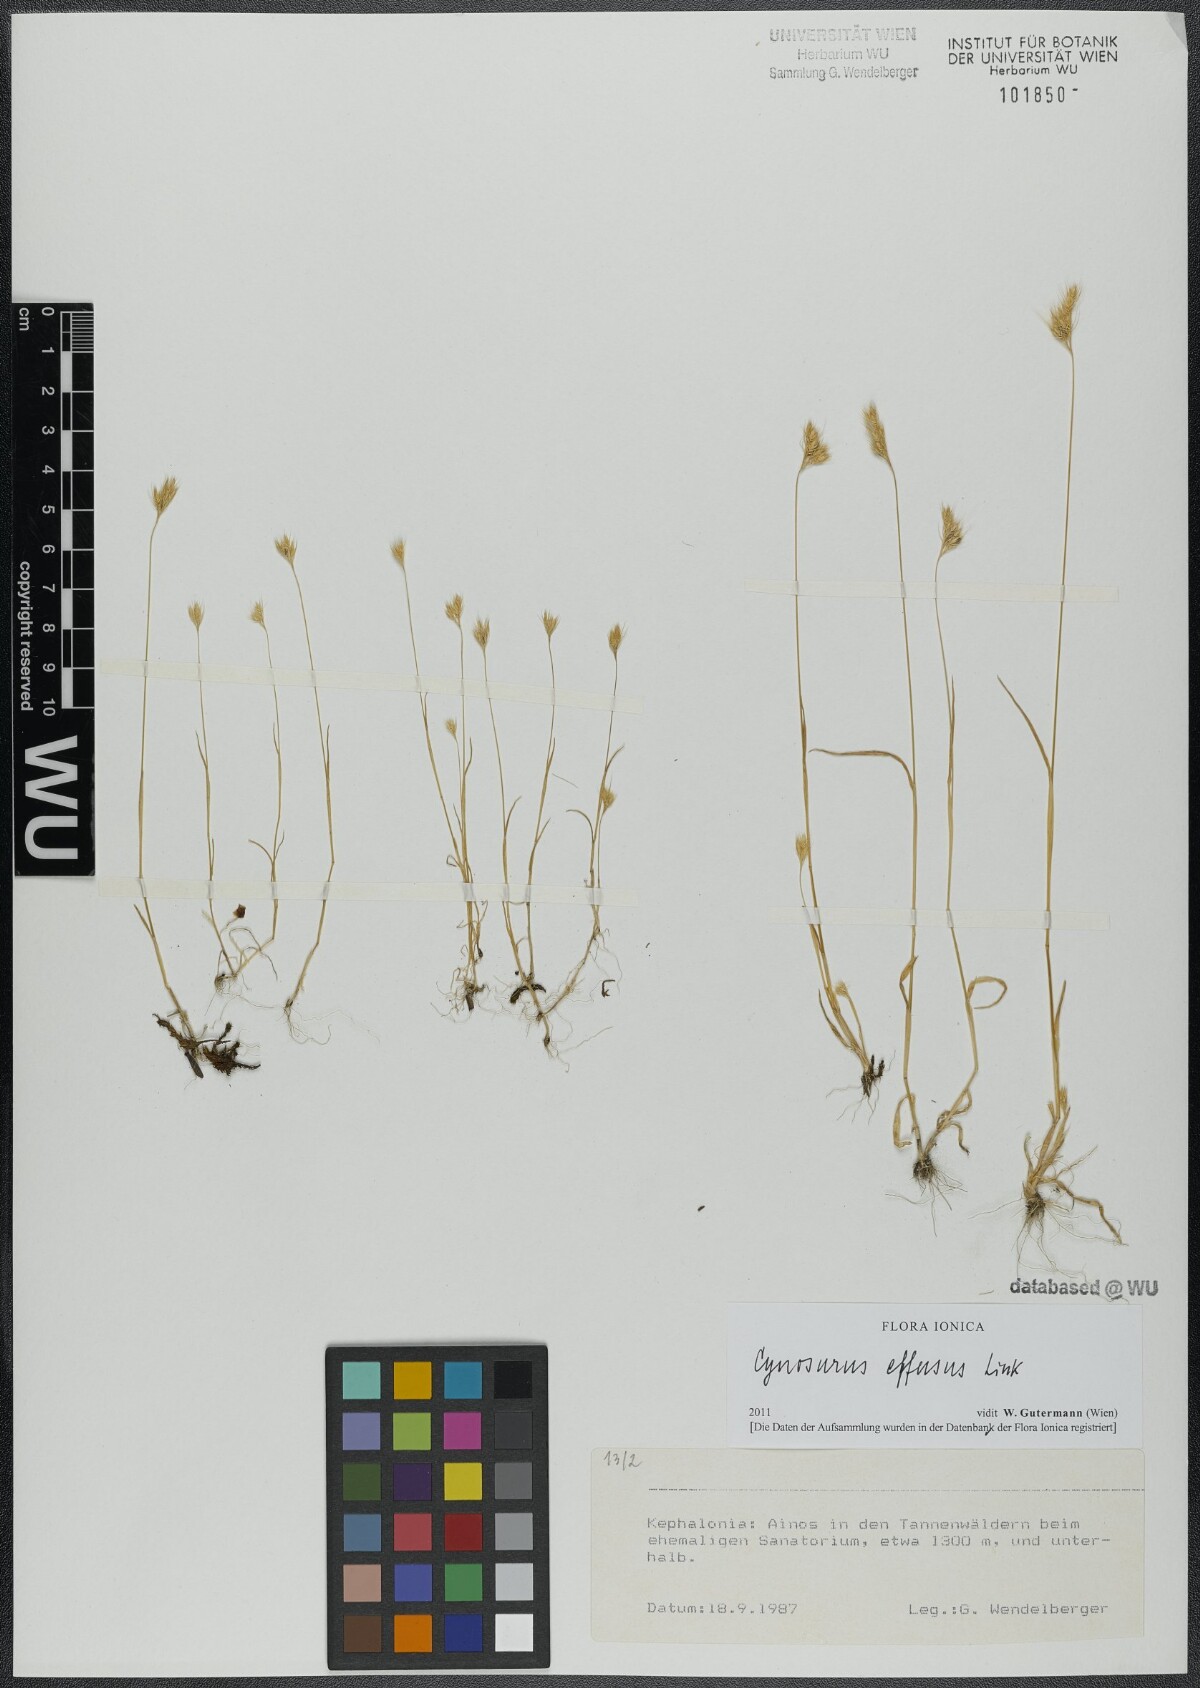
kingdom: Plantae
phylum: Tracheophyta
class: Liliopsida
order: Poales
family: Poaceae
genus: Cynosurus
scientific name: Cynosurus effusus
